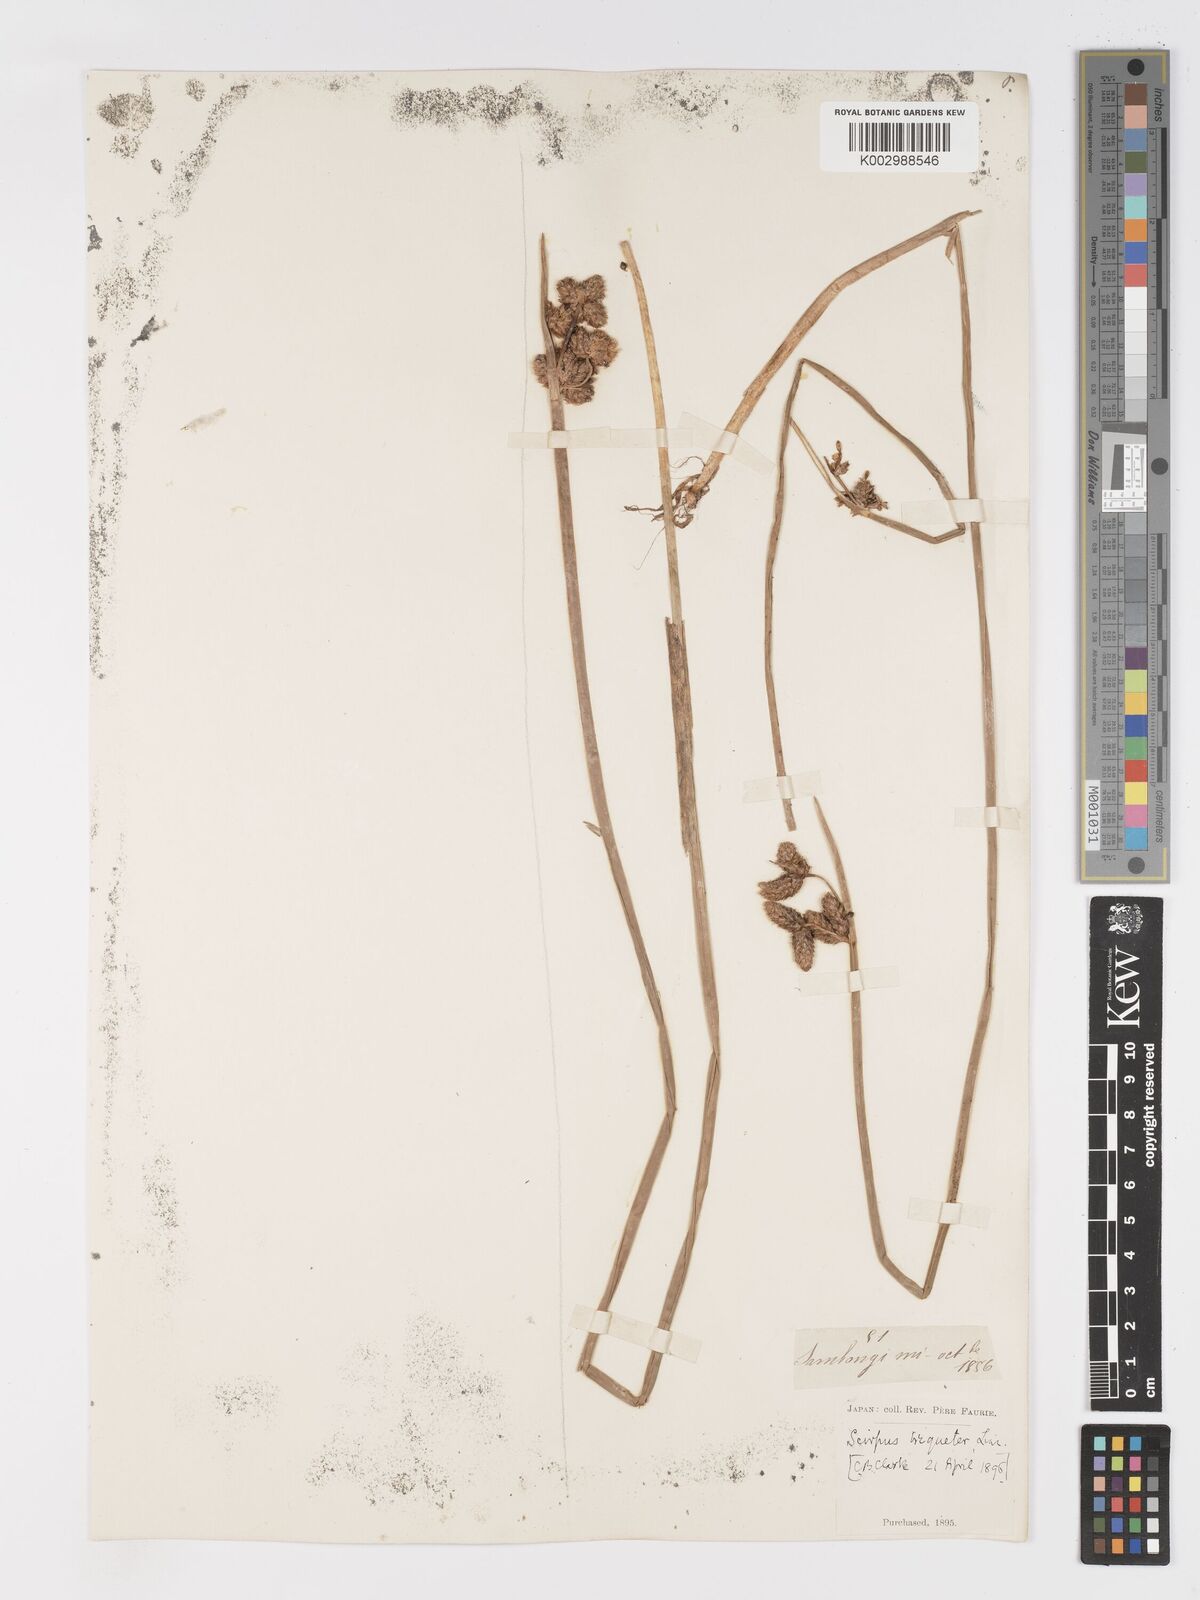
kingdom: Plantae
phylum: Tracheophyta
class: Liliopsida
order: Poales
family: Cyperaceae
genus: Schoenoplectus
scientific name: Schoenoplectus triqueter
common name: Triangular club-rush
